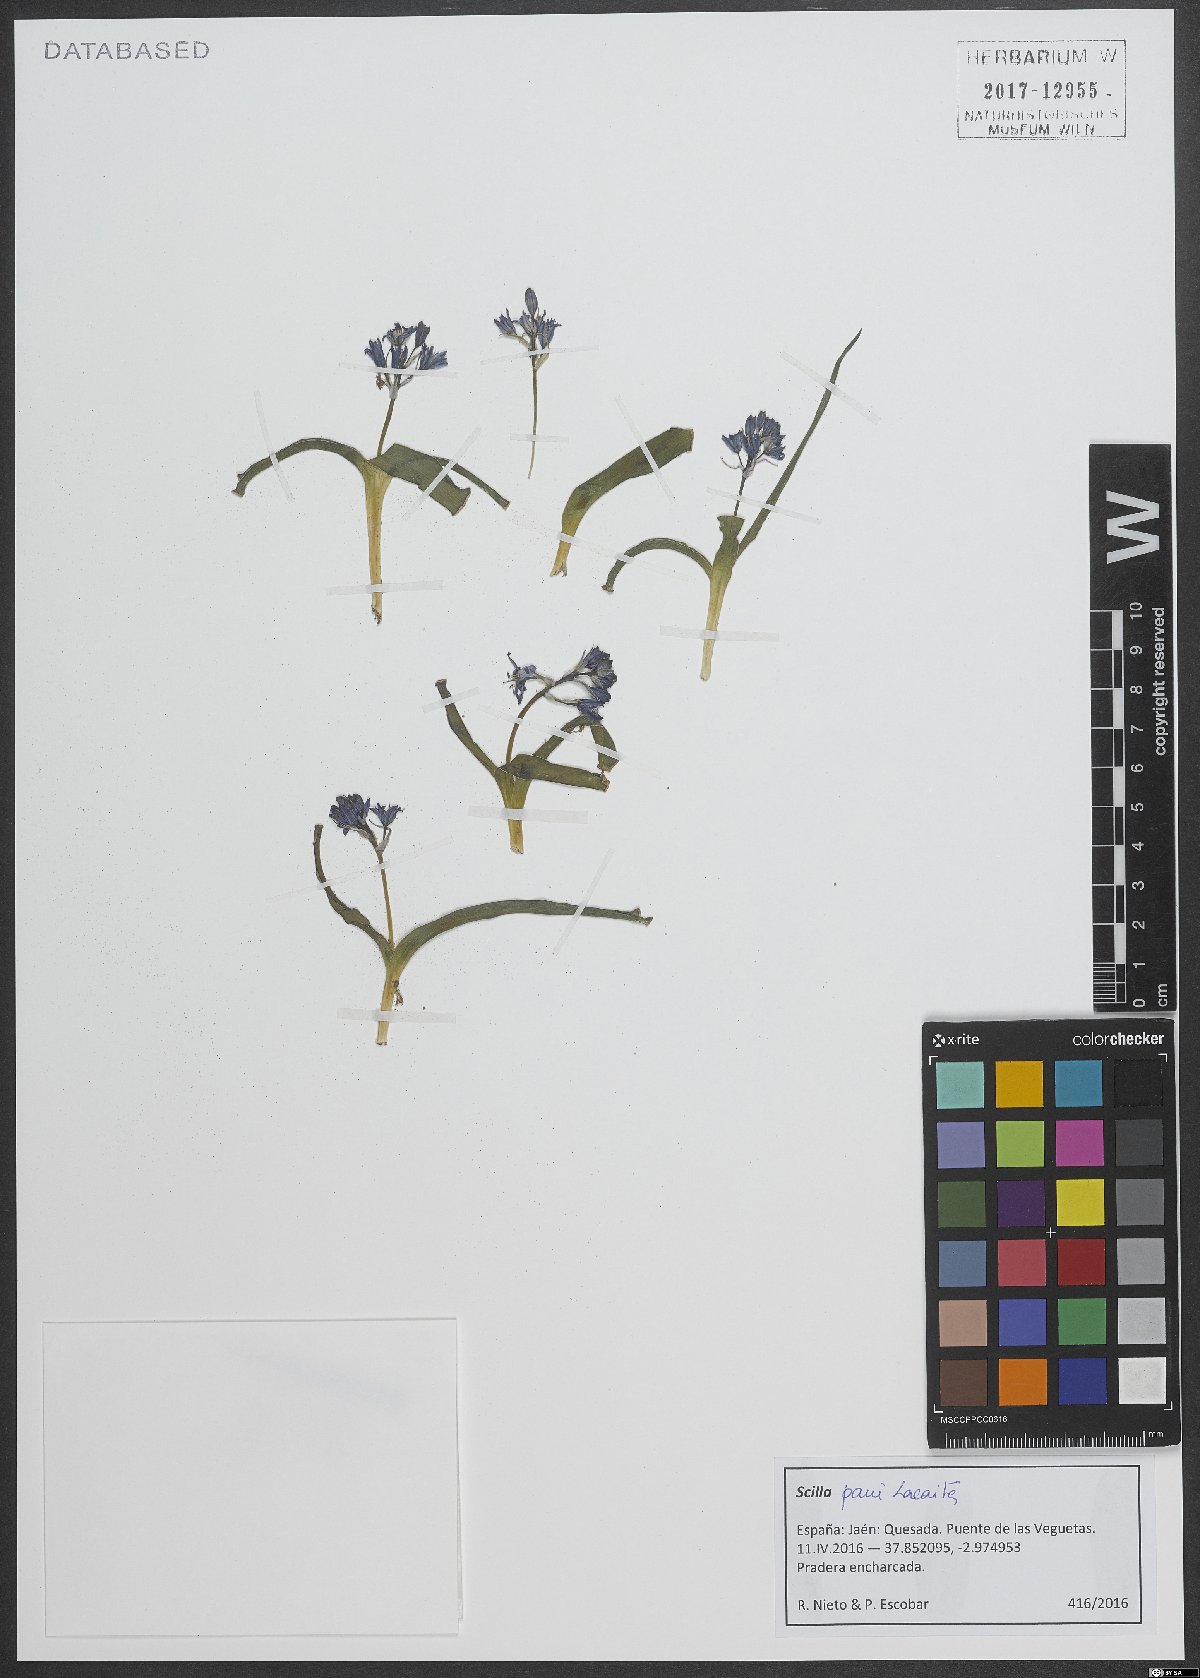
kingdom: Plantae
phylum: Tracheophyta
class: Liliopsida
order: Asparagales
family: Asparagaceae
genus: Scilla
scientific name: Scilla paui
